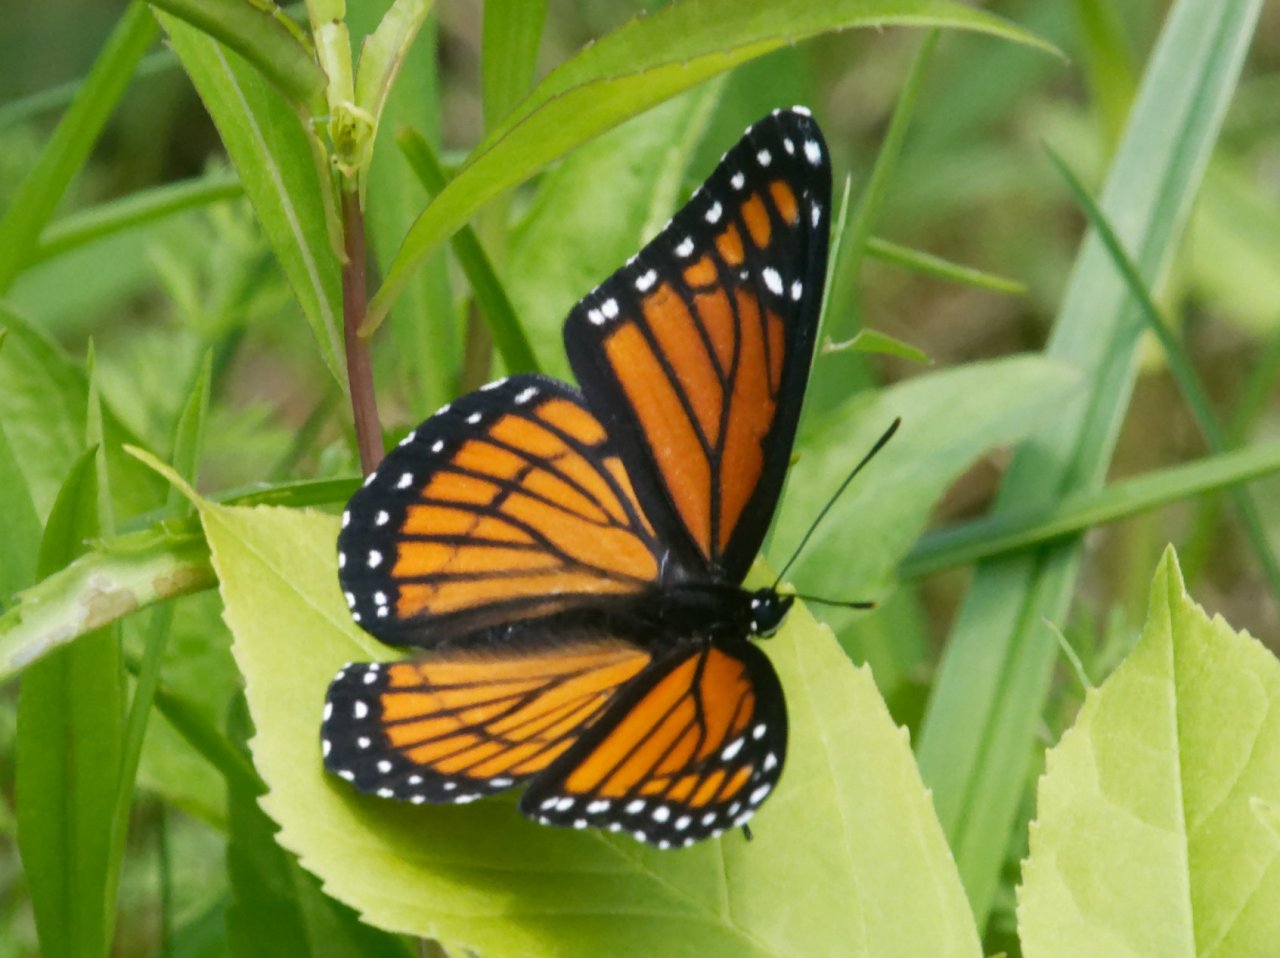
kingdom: Animalia
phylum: Arthropoda
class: Insecta
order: Lepidoptera
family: Nymphalidae
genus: Limenitis
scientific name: Limenitis archippus
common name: Viceroy
